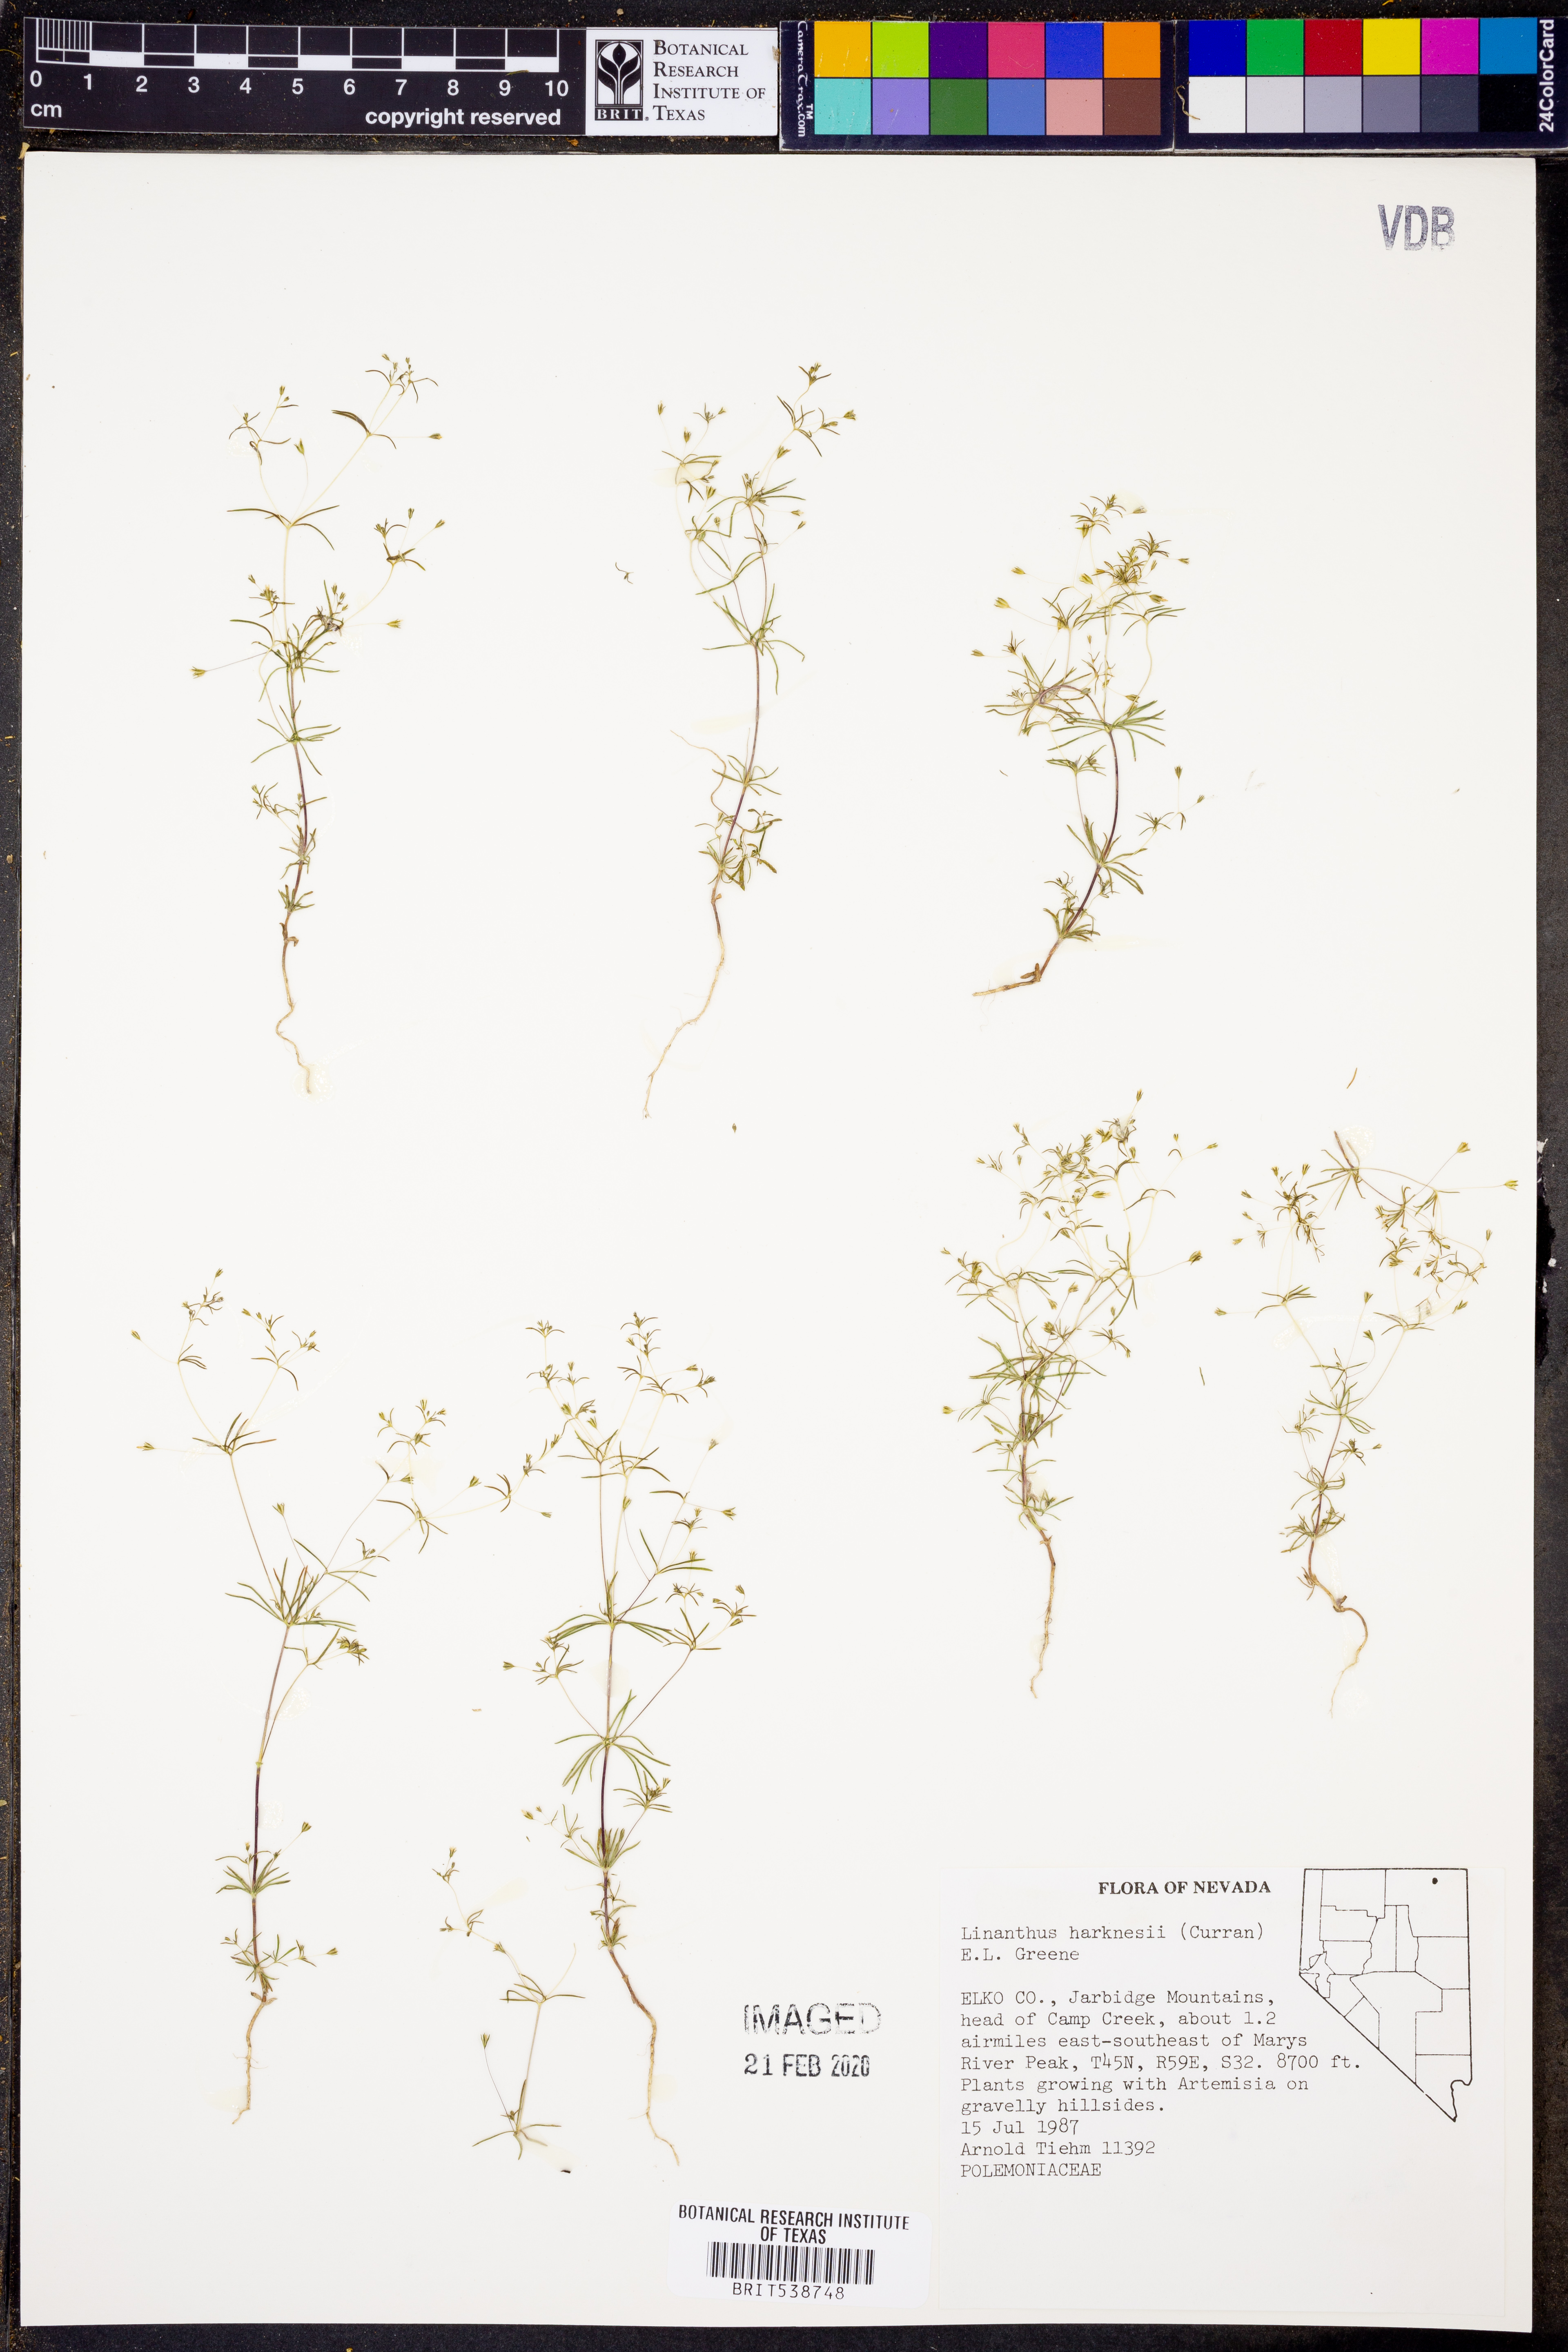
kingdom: Plantae
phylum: Tracheophyta
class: Magnoliopsida
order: Ericales
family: Polemoniaceae
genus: Linanthus
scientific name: Linanthus harknessii
